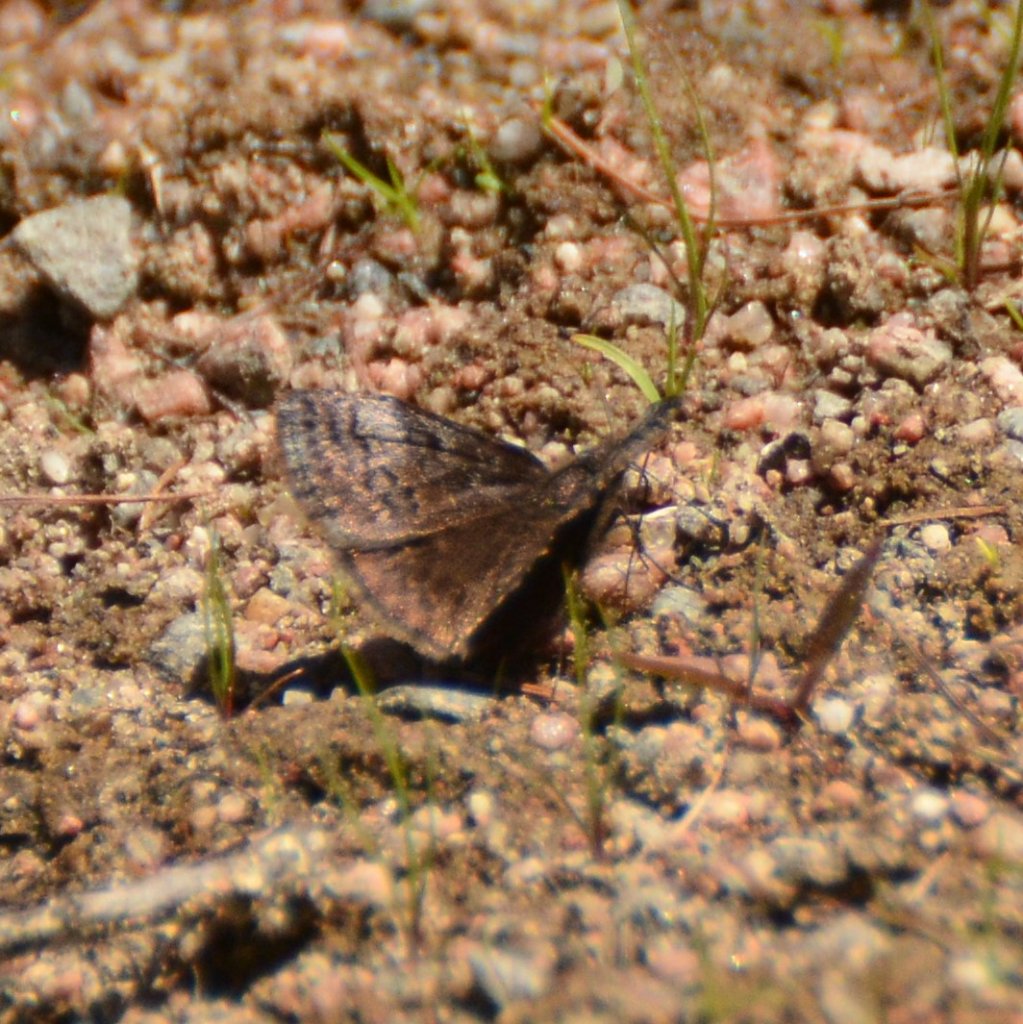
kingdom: Animalia
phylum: Arthropoda
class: Insecta
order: Lepidoptera
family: Hesperiidae
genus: Erynnis
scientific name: Erynnis icelus
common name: Dreamy Duskywing
